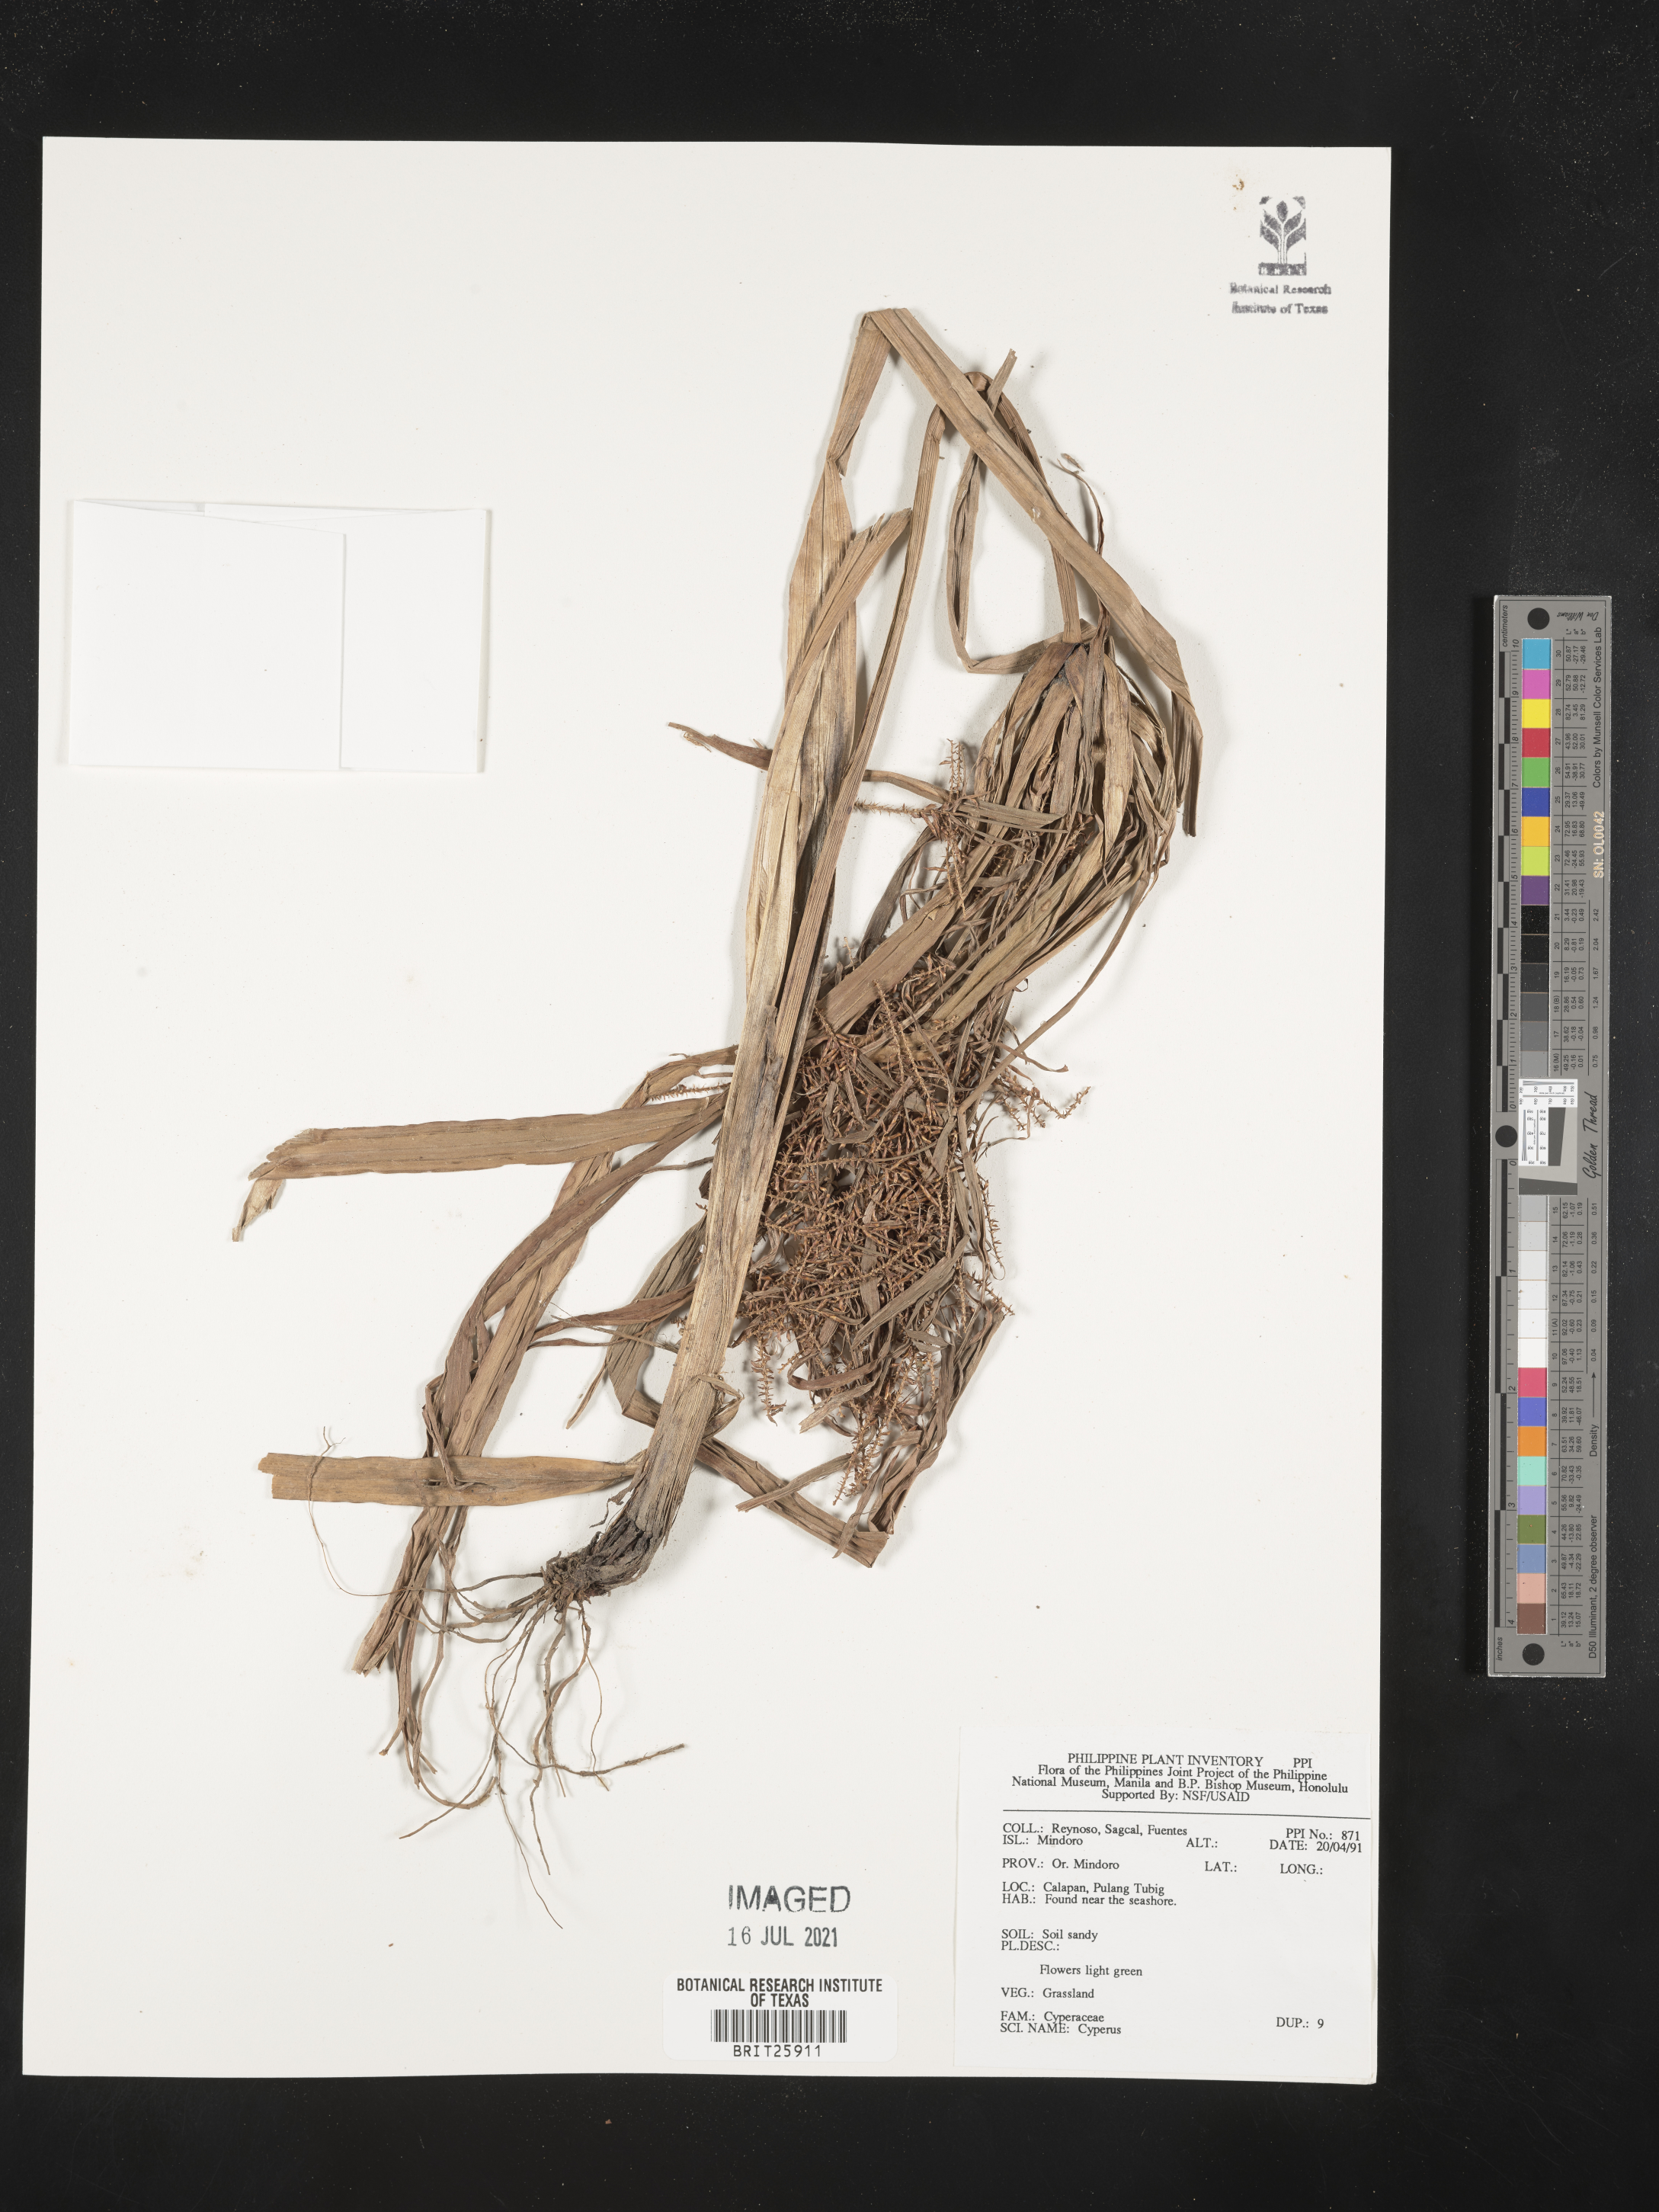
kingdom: Plantae
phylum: Tracheophyta
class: Liliopsida
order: Poales
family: Cyperaceae
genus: Cyperus
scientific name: Cyperus
